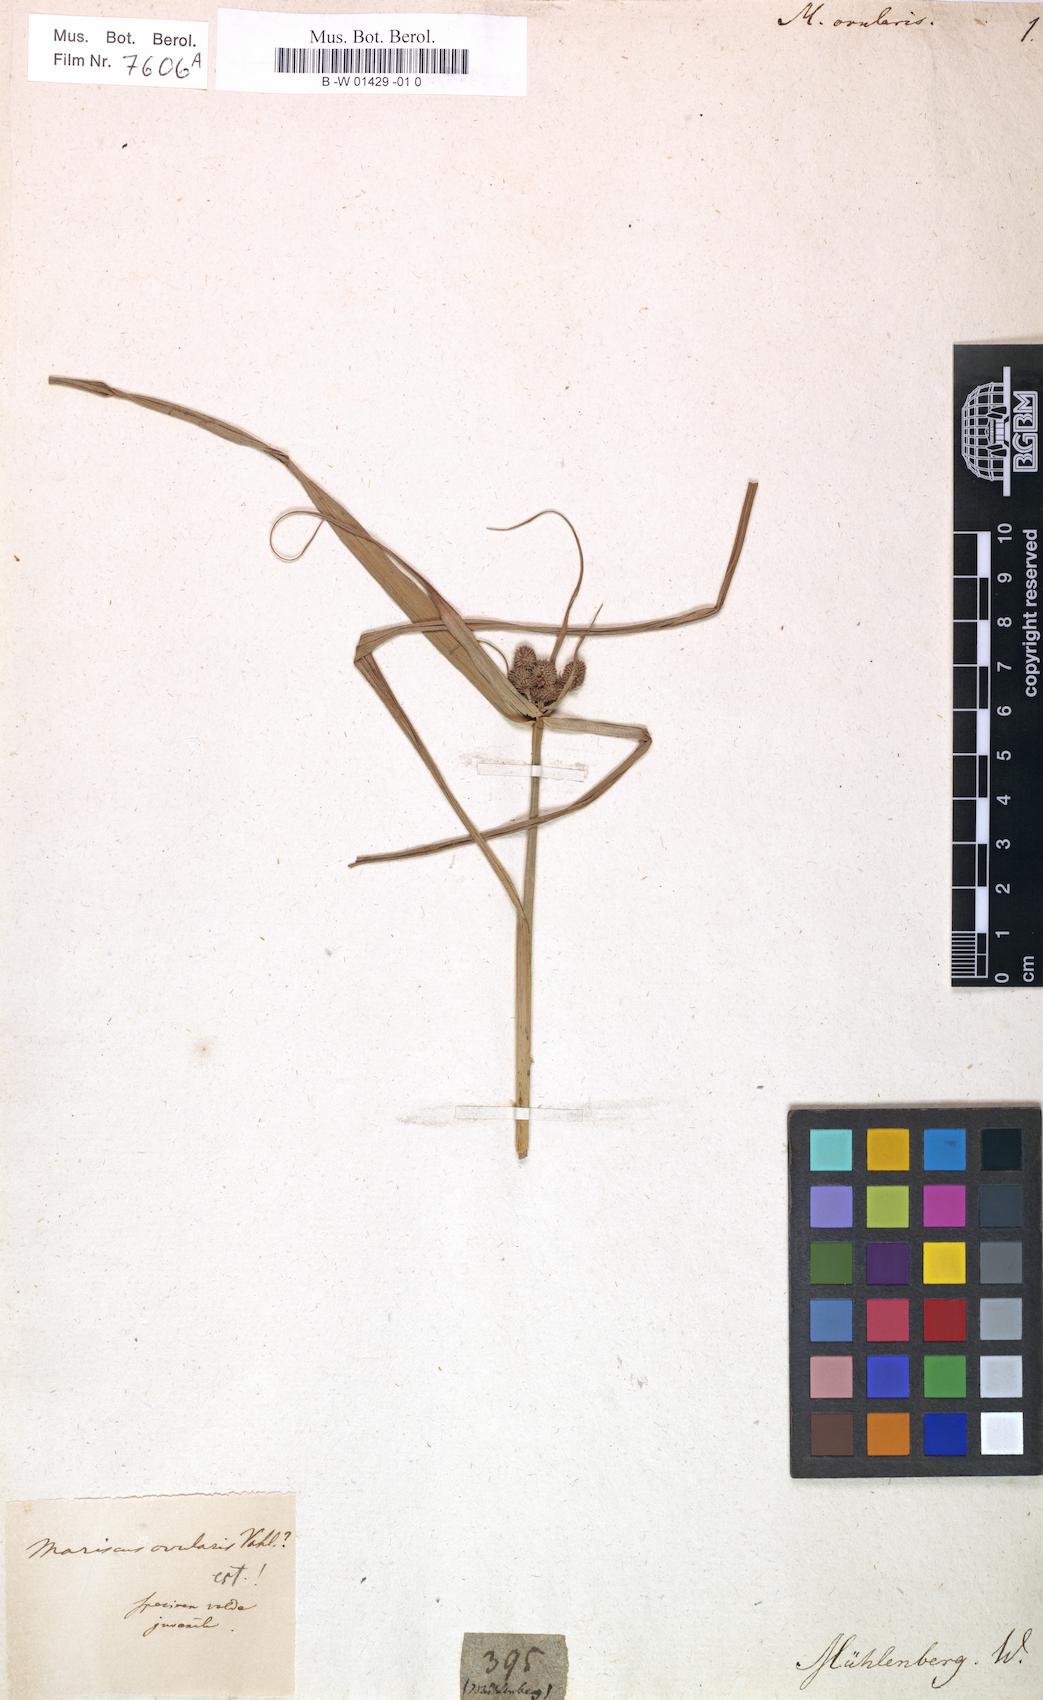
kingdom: Plantae
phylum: Tracheophyta
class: Liliopsida
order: Poales
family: Cyperaceae
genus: Cyperus
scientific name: Cyperus echinatus
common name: Teasel sedge
